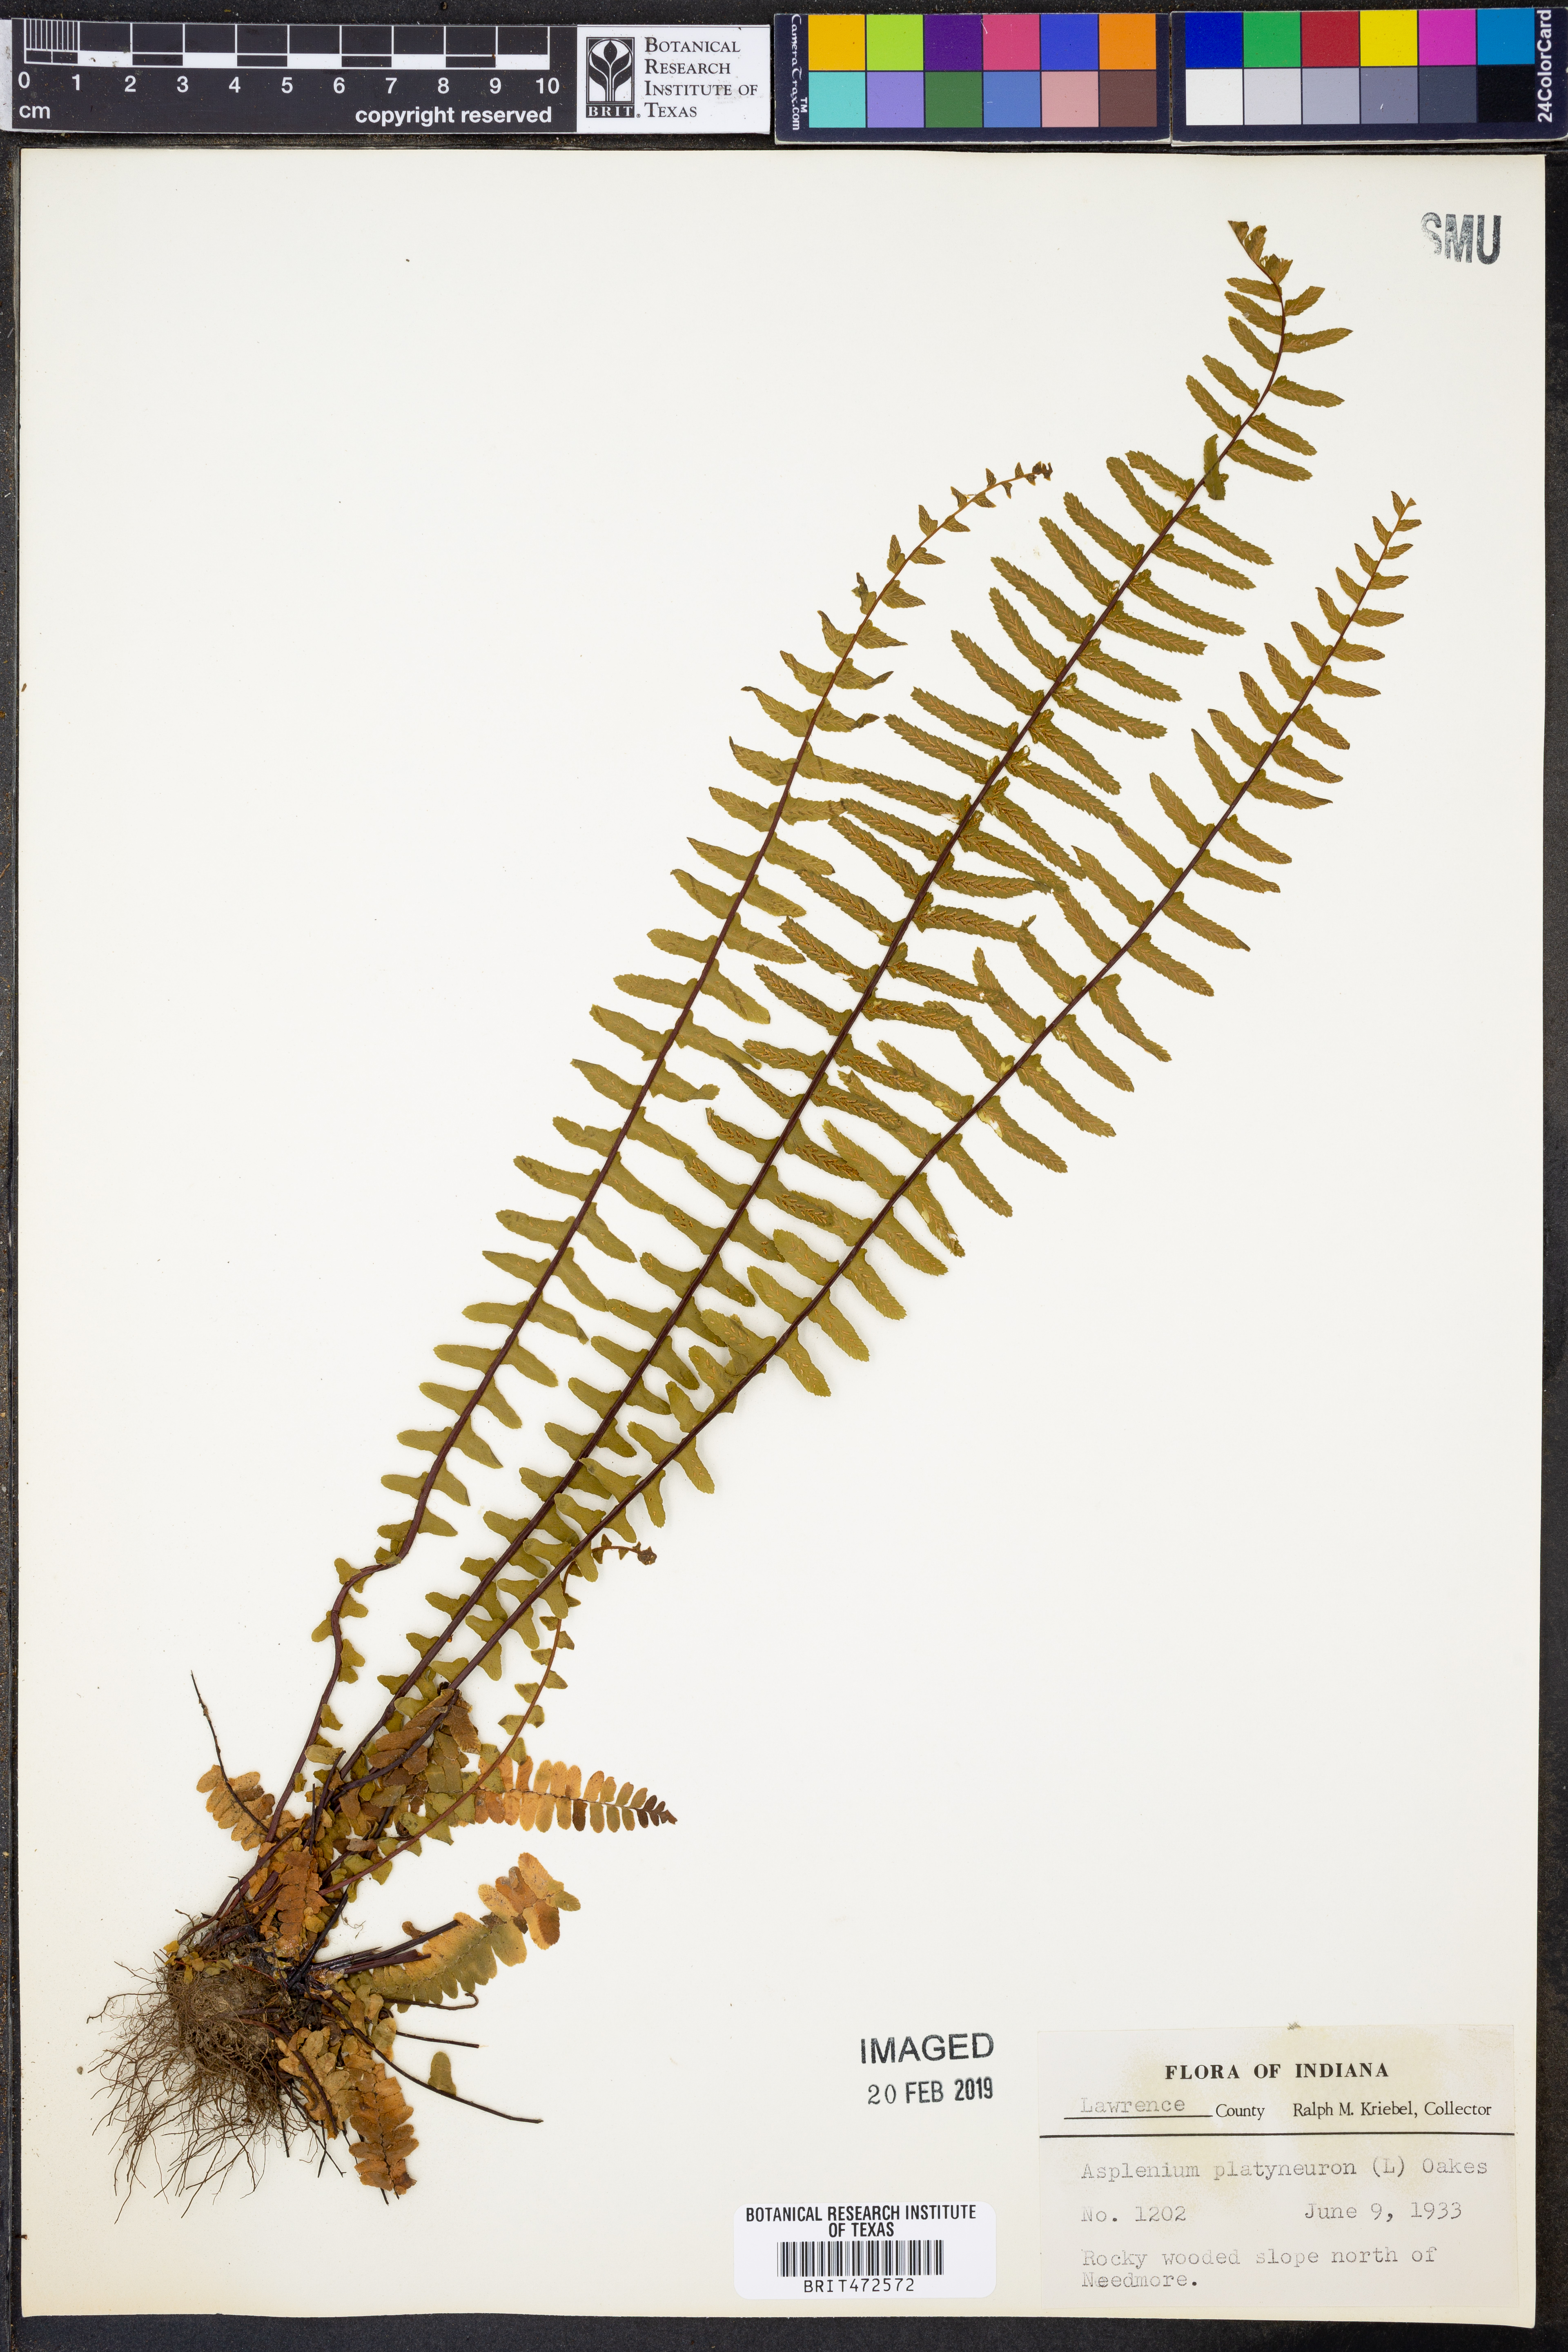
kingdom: Plantae
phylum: Tracheophyta
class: Polypodiopsida
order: Polypodiales
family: Aspleniaceae
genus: Asplenium
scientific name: Asplenium platyneuron
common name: Ebony spleenwort
